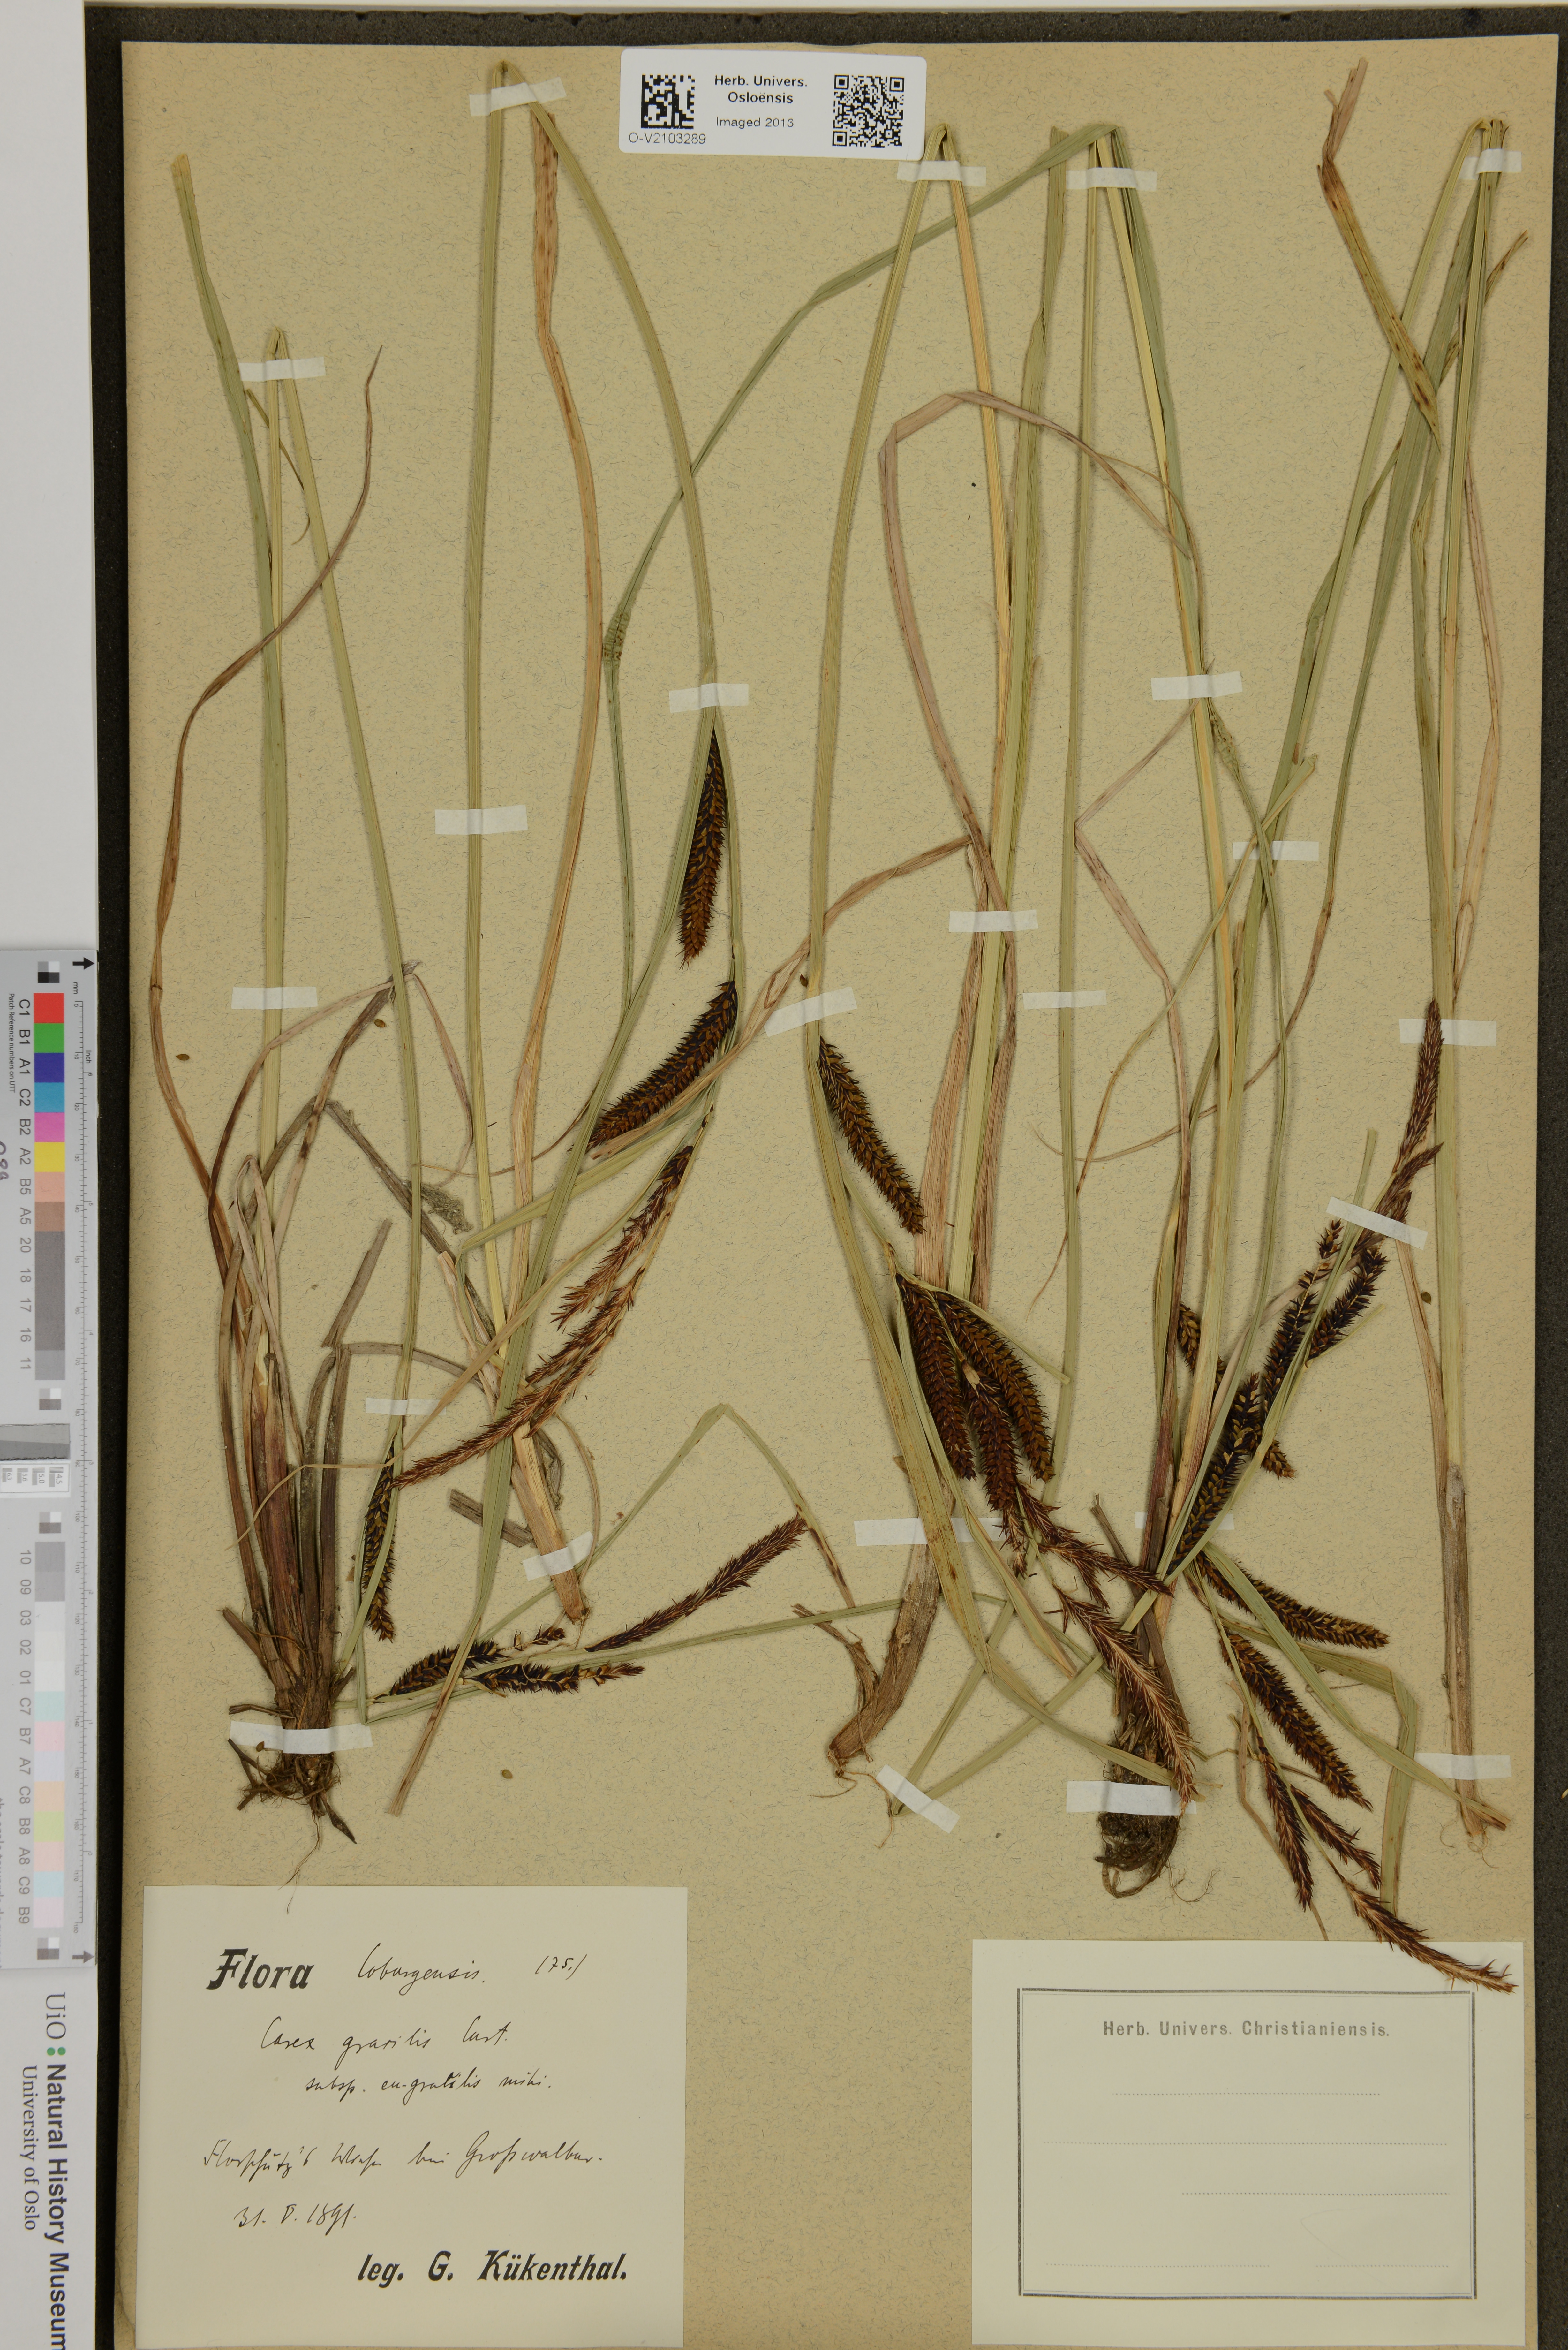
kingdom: Plantae
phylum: Tracheophyta
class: Liliopsida
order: Poales
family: Cyperaceae
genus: Carex
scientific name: Carex acuta
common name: Slender tufted-sedge
